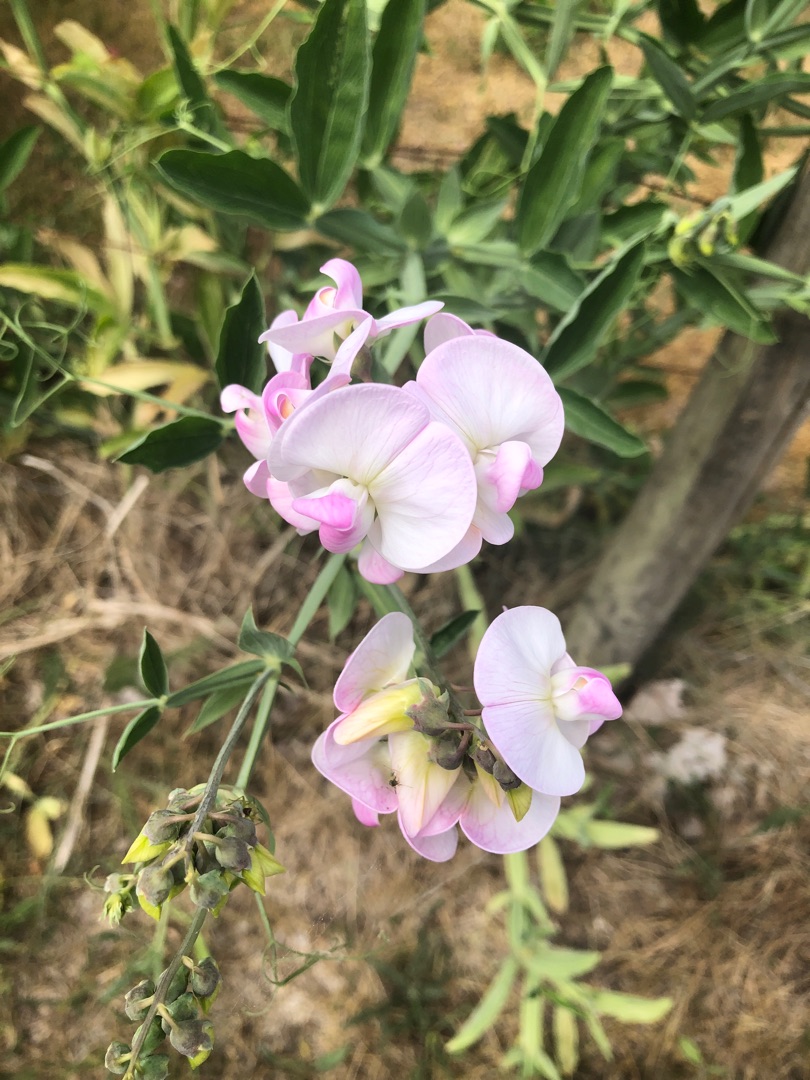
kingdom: Plantae
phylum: Tracheophyta
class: Magnoliopsida
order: Fabales
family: Fabaceae
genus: Lathyrus
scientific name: Lathyrus latifolius
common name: Flerårig ærteblomst
